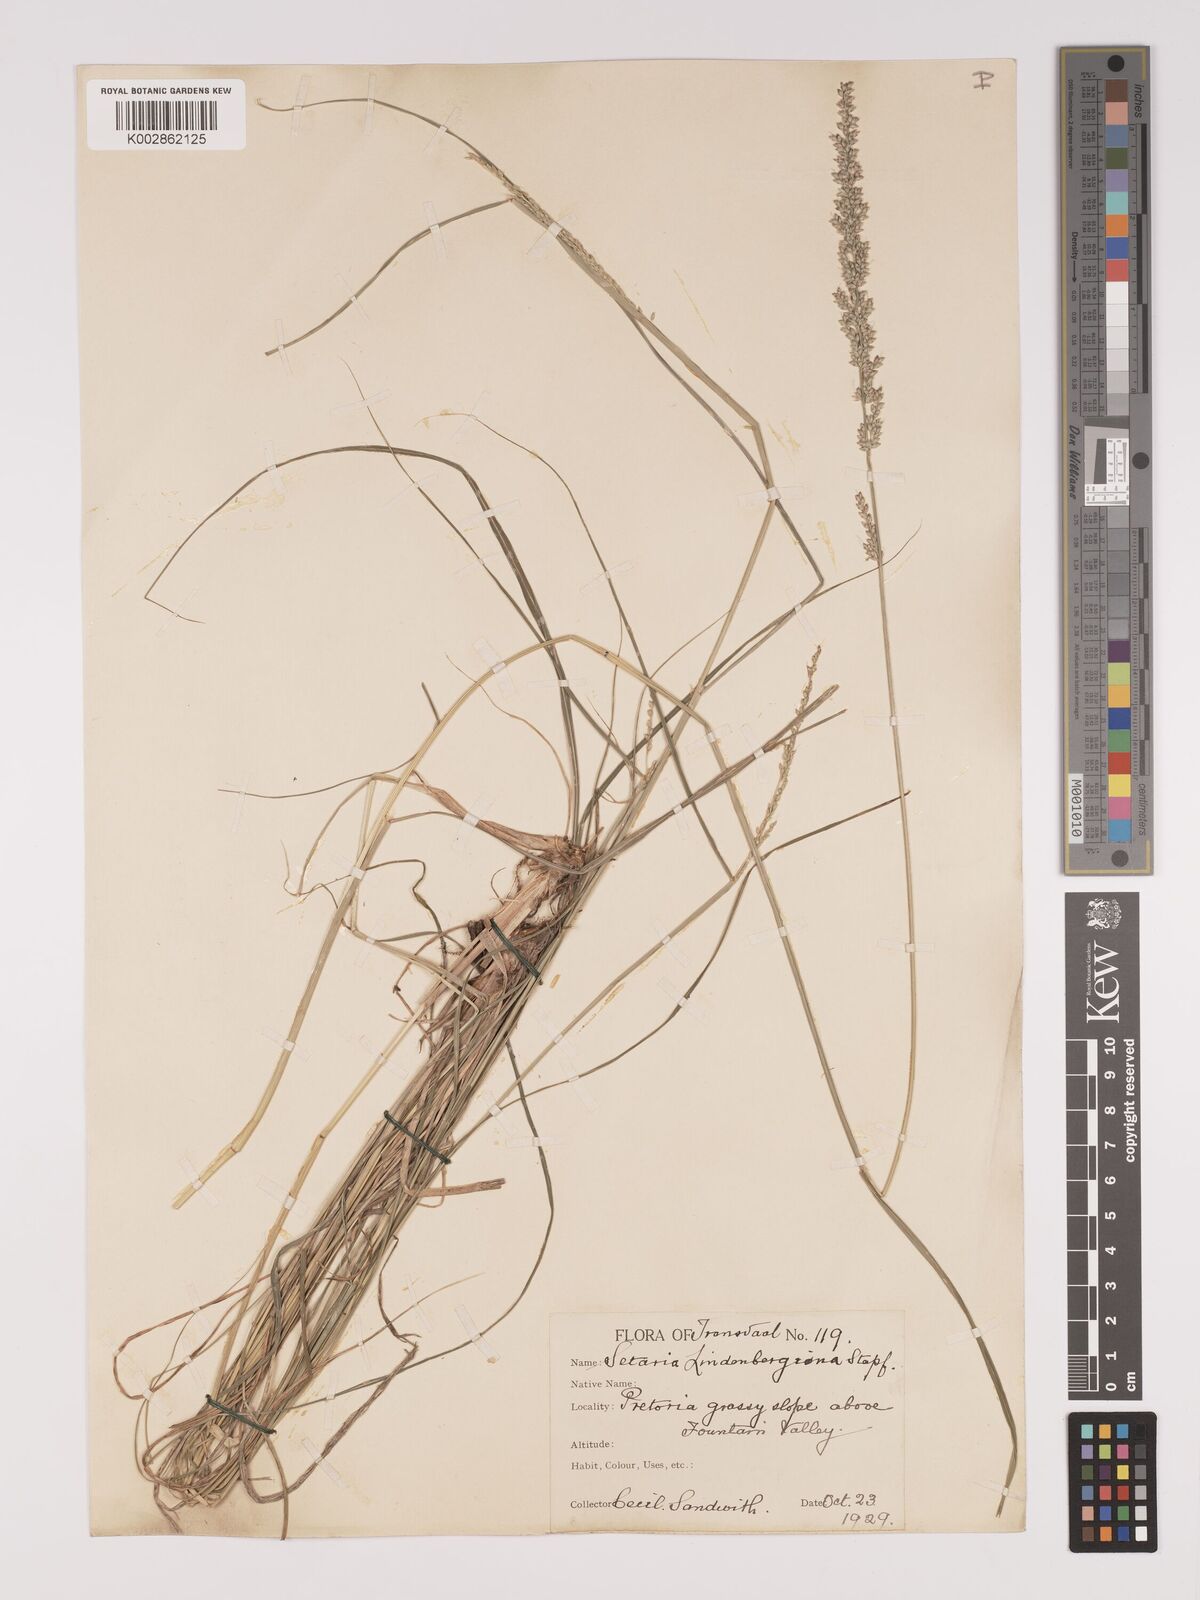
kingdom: Plantae
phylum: Tracheophyta
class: Liliopsida
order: Poales
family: Poaceae
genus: Setaria
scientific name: Setaria lindenbergiana
